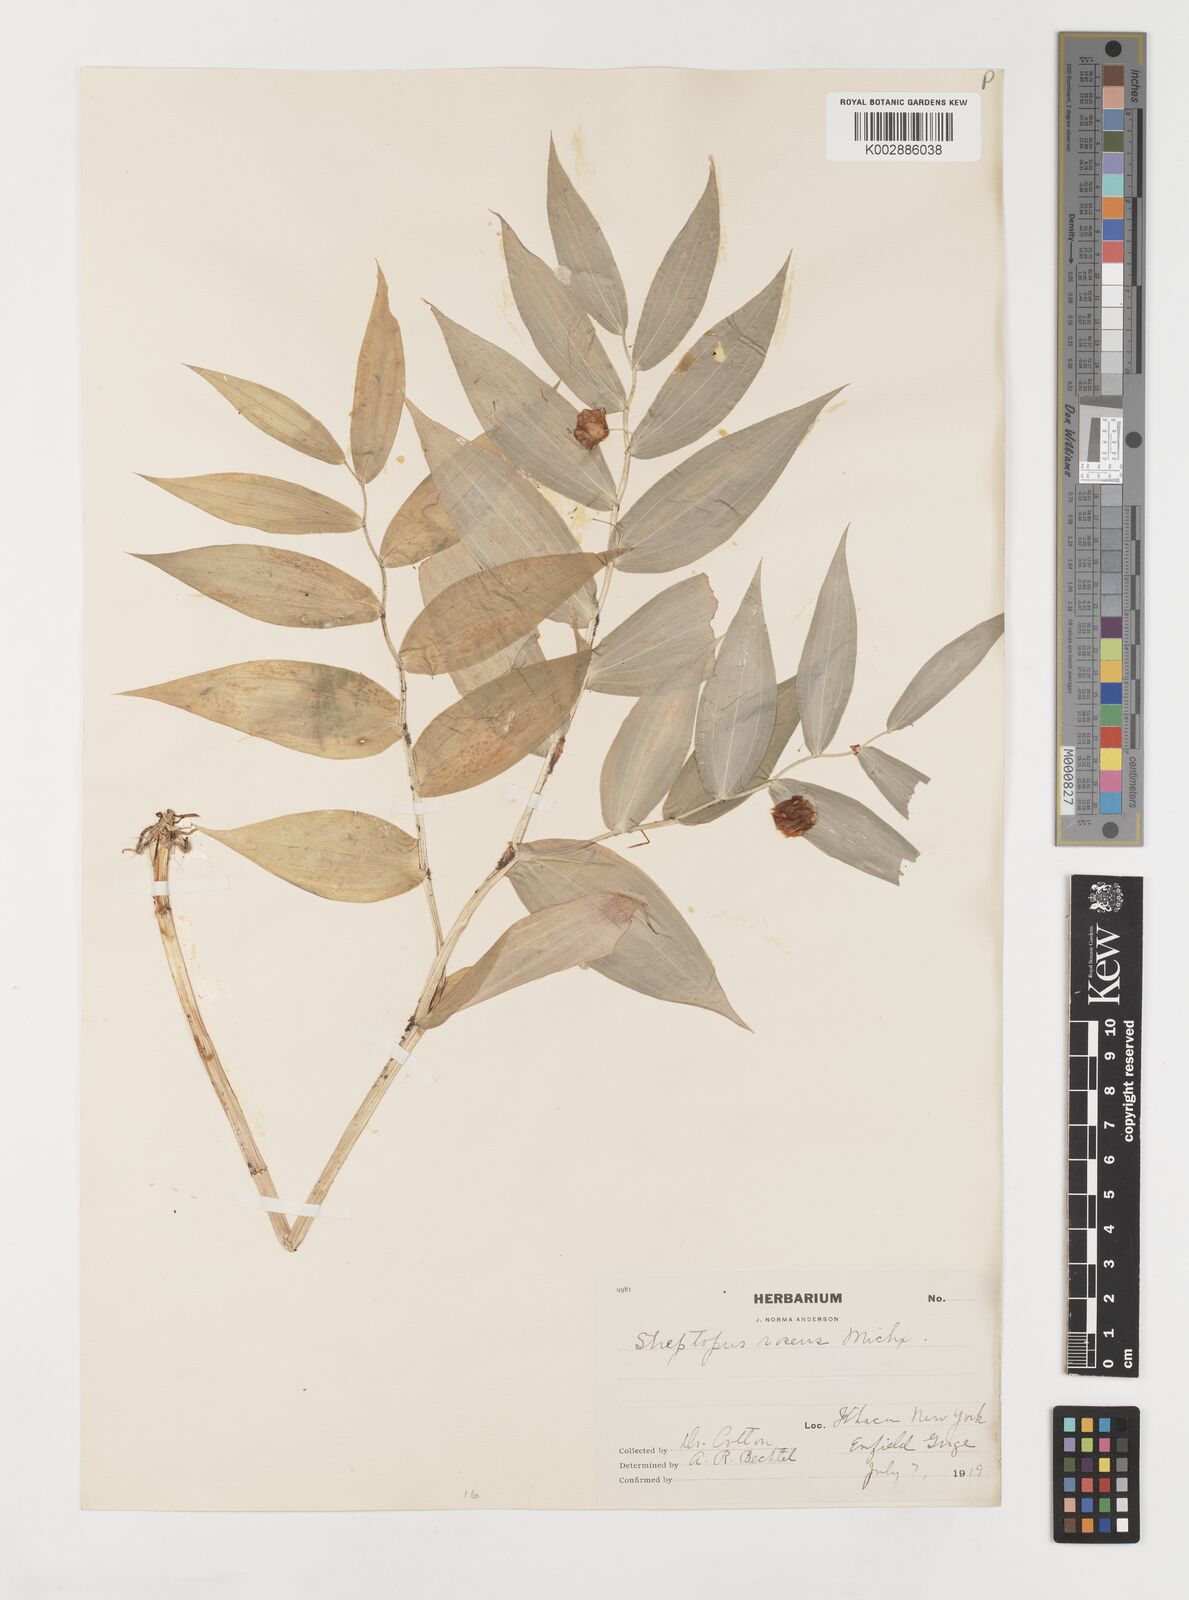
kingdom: Plantae
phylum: Tracheophyta
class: Liliopsida
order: Liliales
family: Liliaceae
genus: Streptopus
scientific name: Streptopus lanceolatus
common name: Rose mandarin
